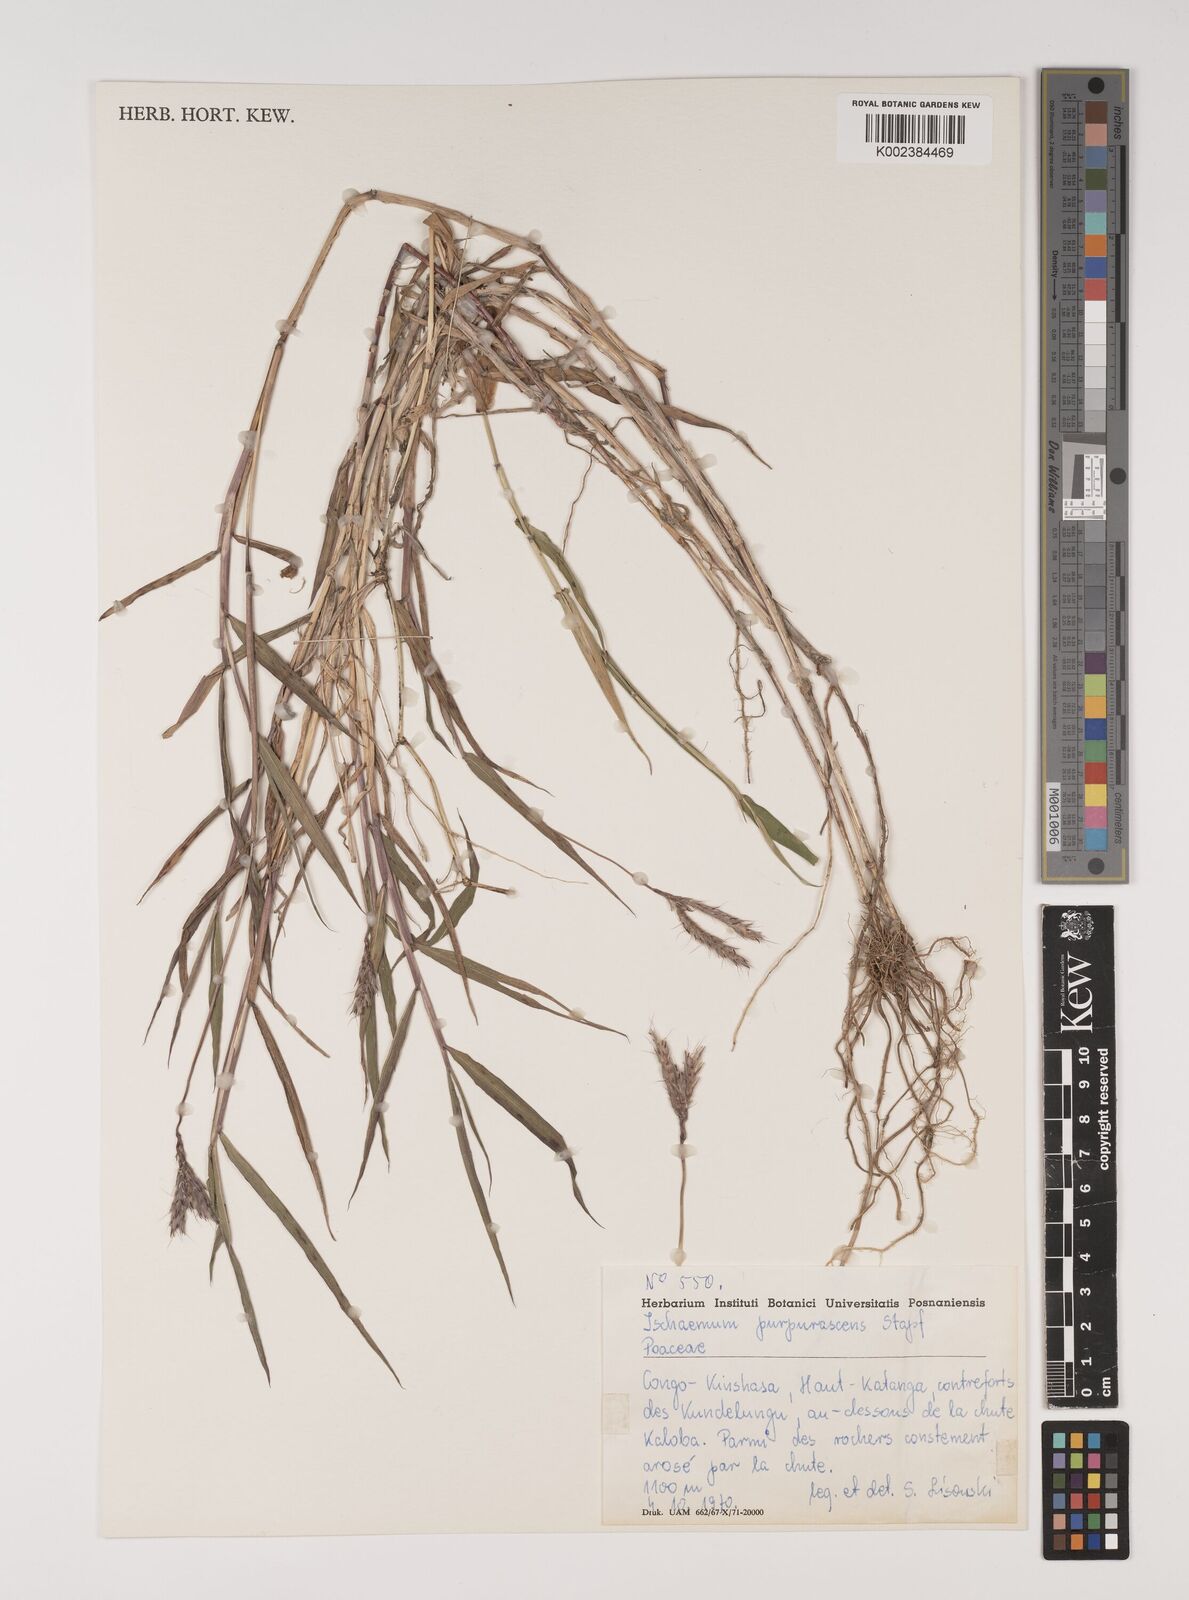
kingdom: Plantae
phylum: Tracheophyta
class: Liliopsida
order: Poales
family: Poaceae
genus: Ischaemum
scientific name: Ischaemum polystachyum
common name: Paddle grass
